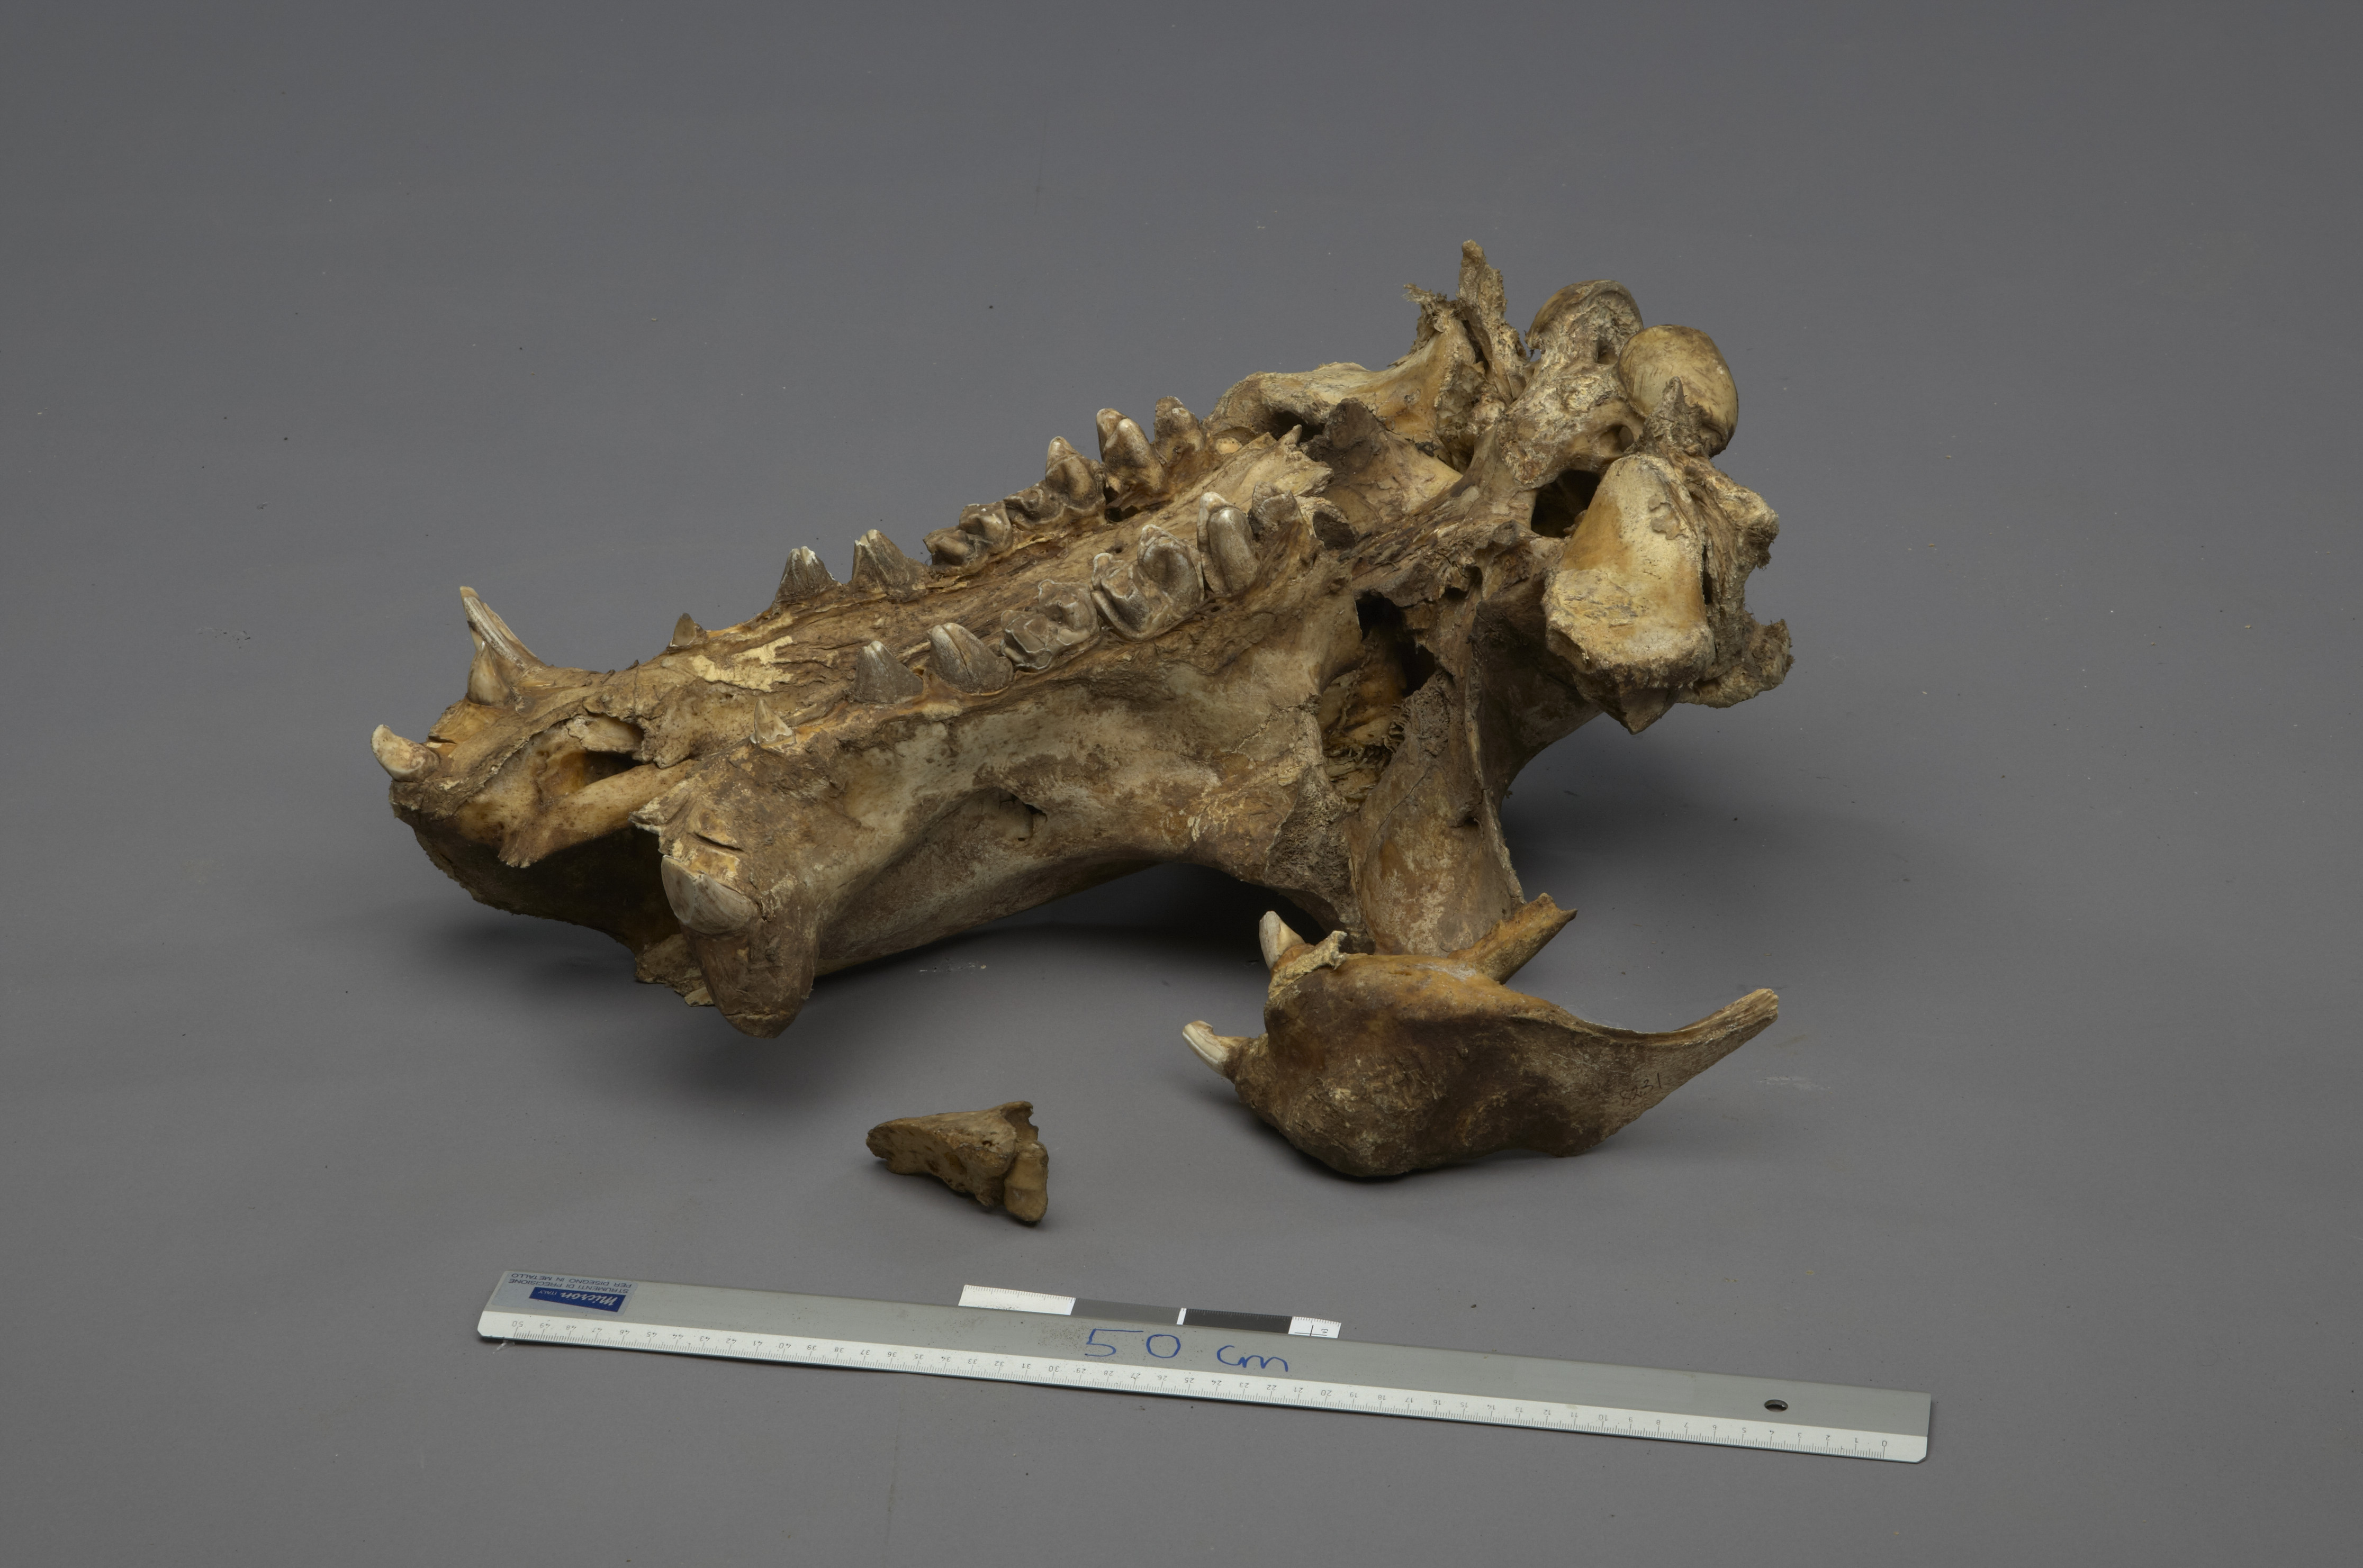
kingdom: Animalia
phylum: Chordata
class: Mammalia
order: Artiodactyla
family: Hippopotamidae
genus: Hippopotamus
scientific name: Hippopotamus amphibius
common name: Common hippopotamus
